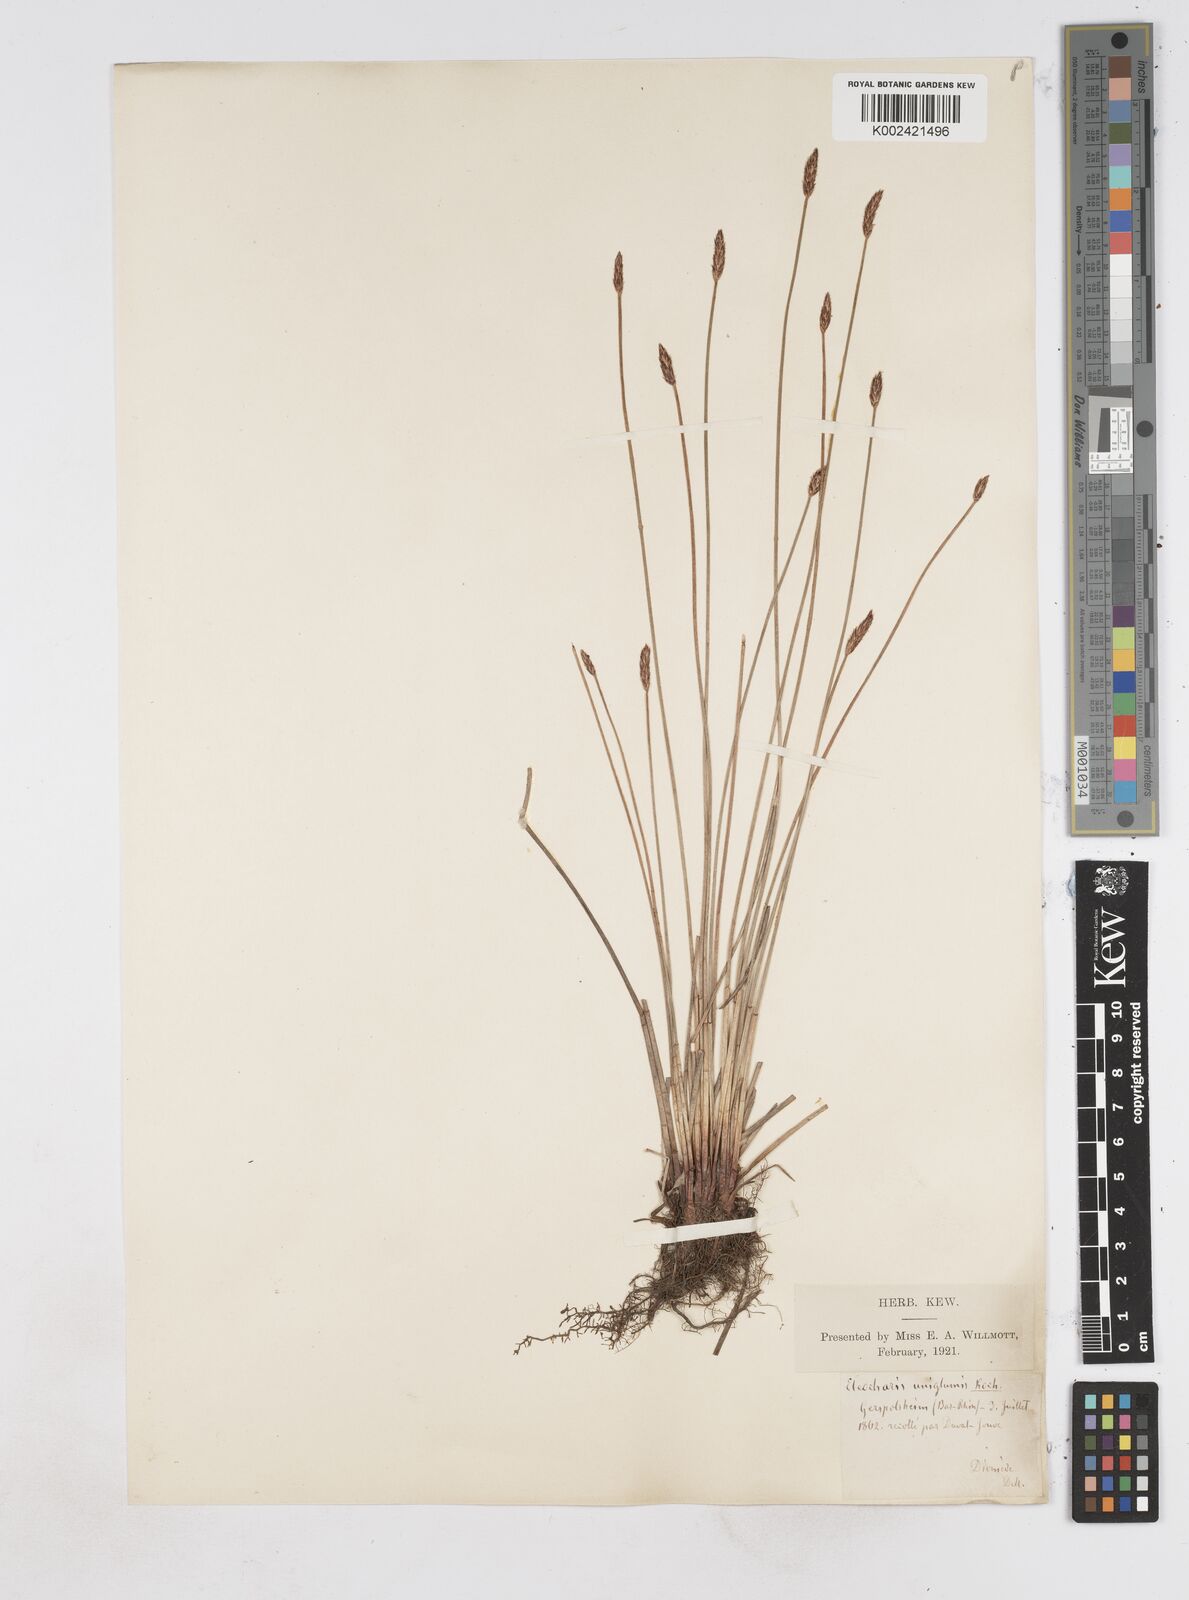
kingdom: Plantae
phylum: Tracheophyta
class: Liliopsida
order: Poales
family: Cyperaceae
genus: Eleocharis
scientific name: Eleocharis uniglumis
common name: Slender spike-rush
